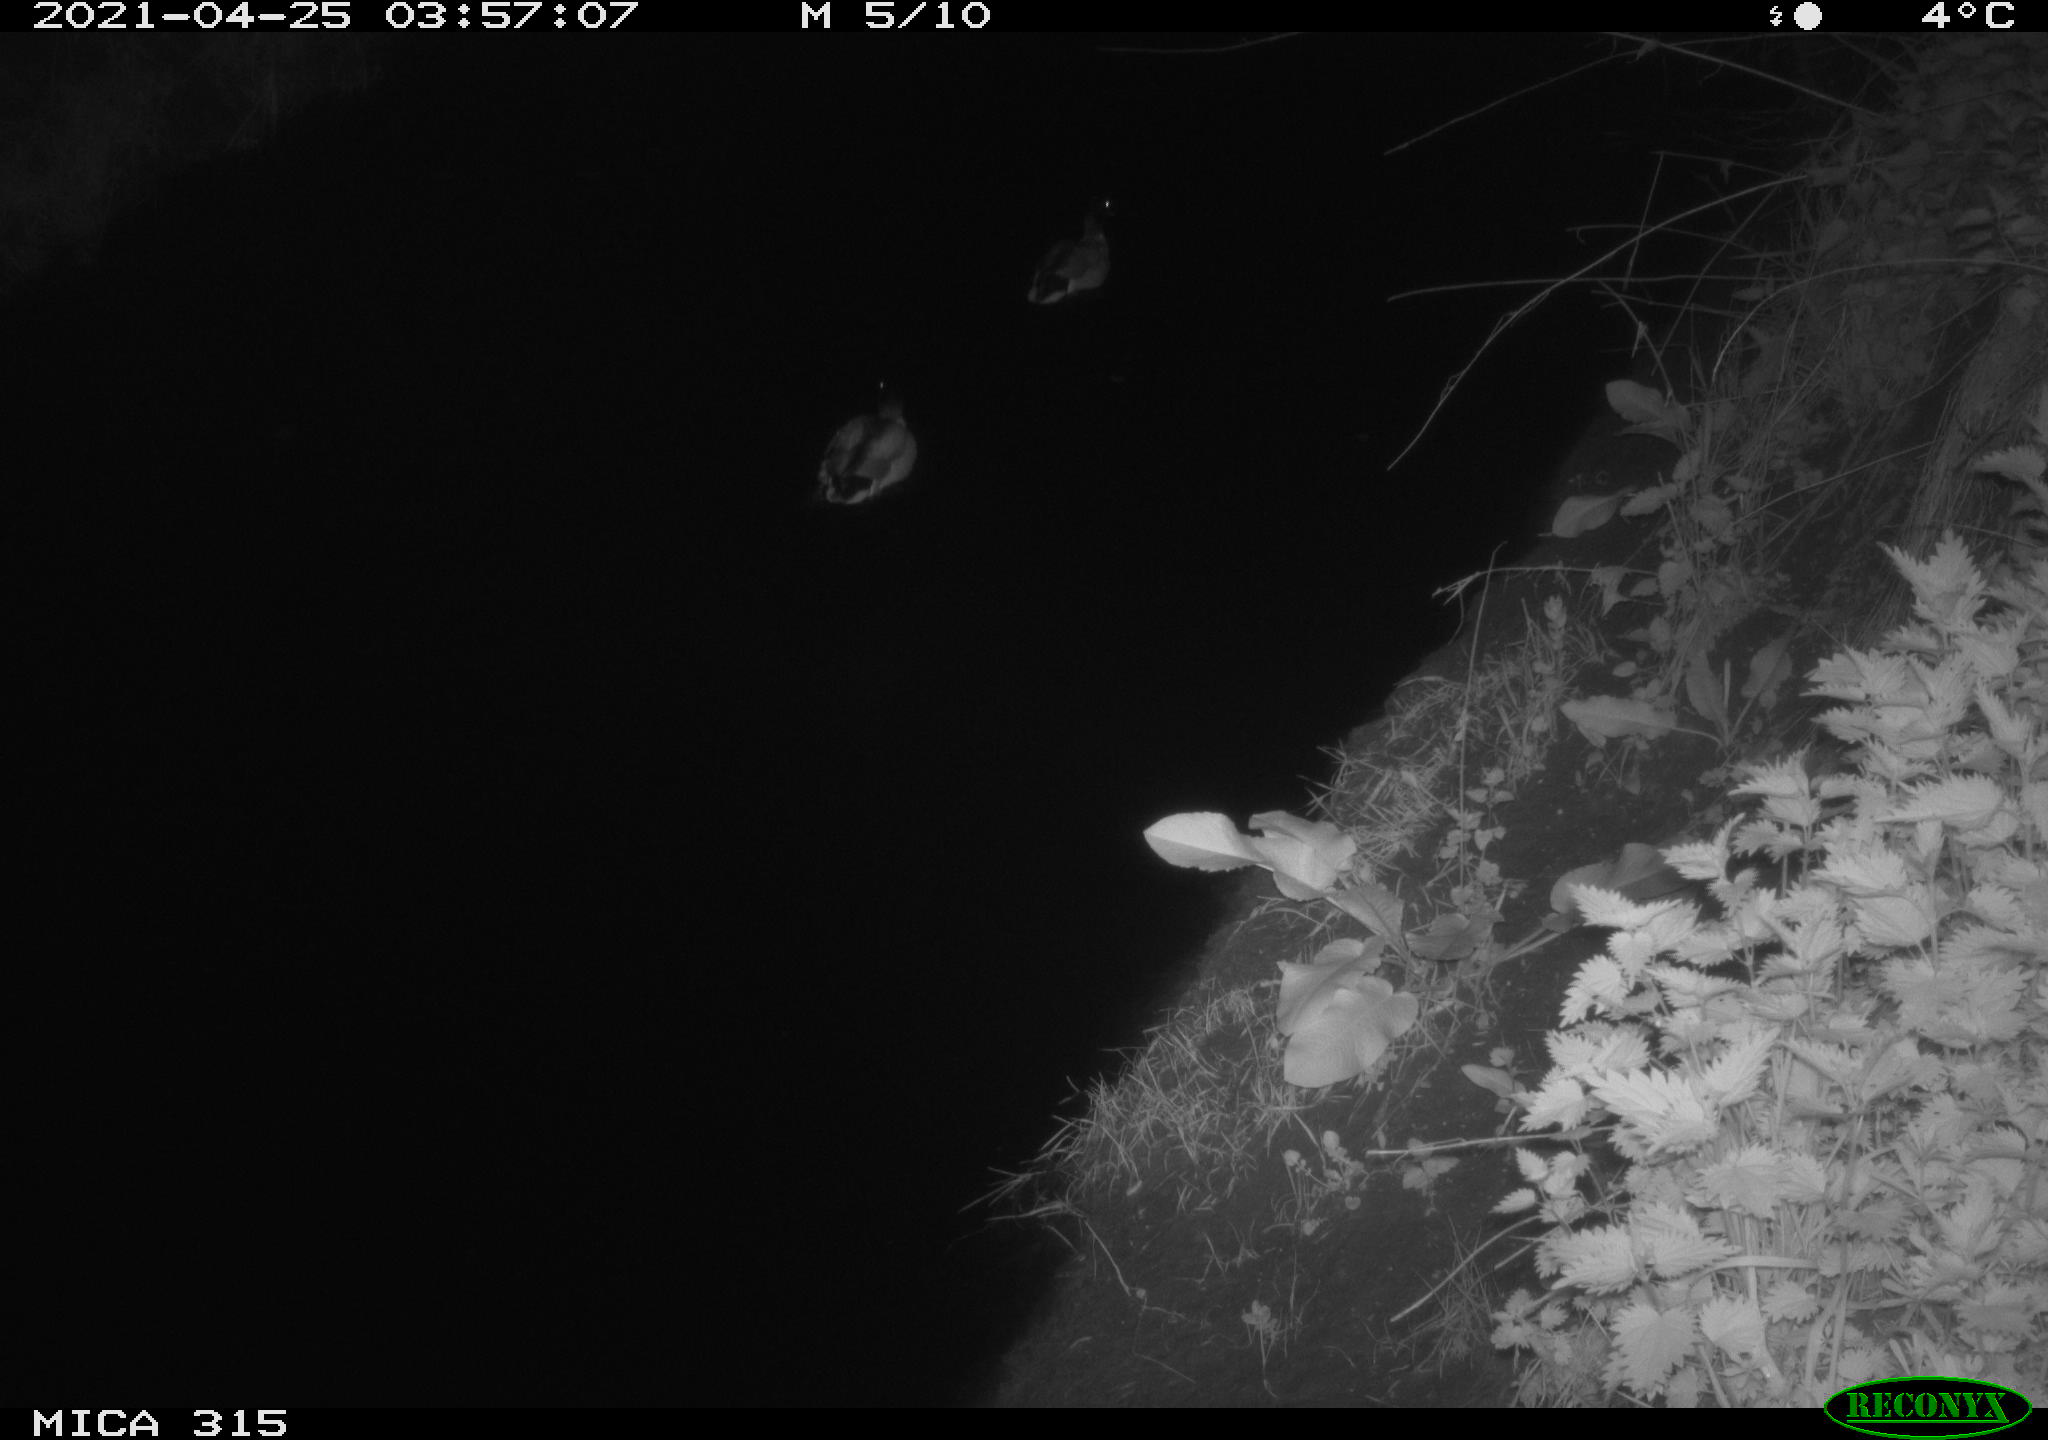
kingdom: Animalia
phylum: Chordata
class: Aves
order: Anseriformes
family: Anatidae
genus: Anas
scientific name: Anas
